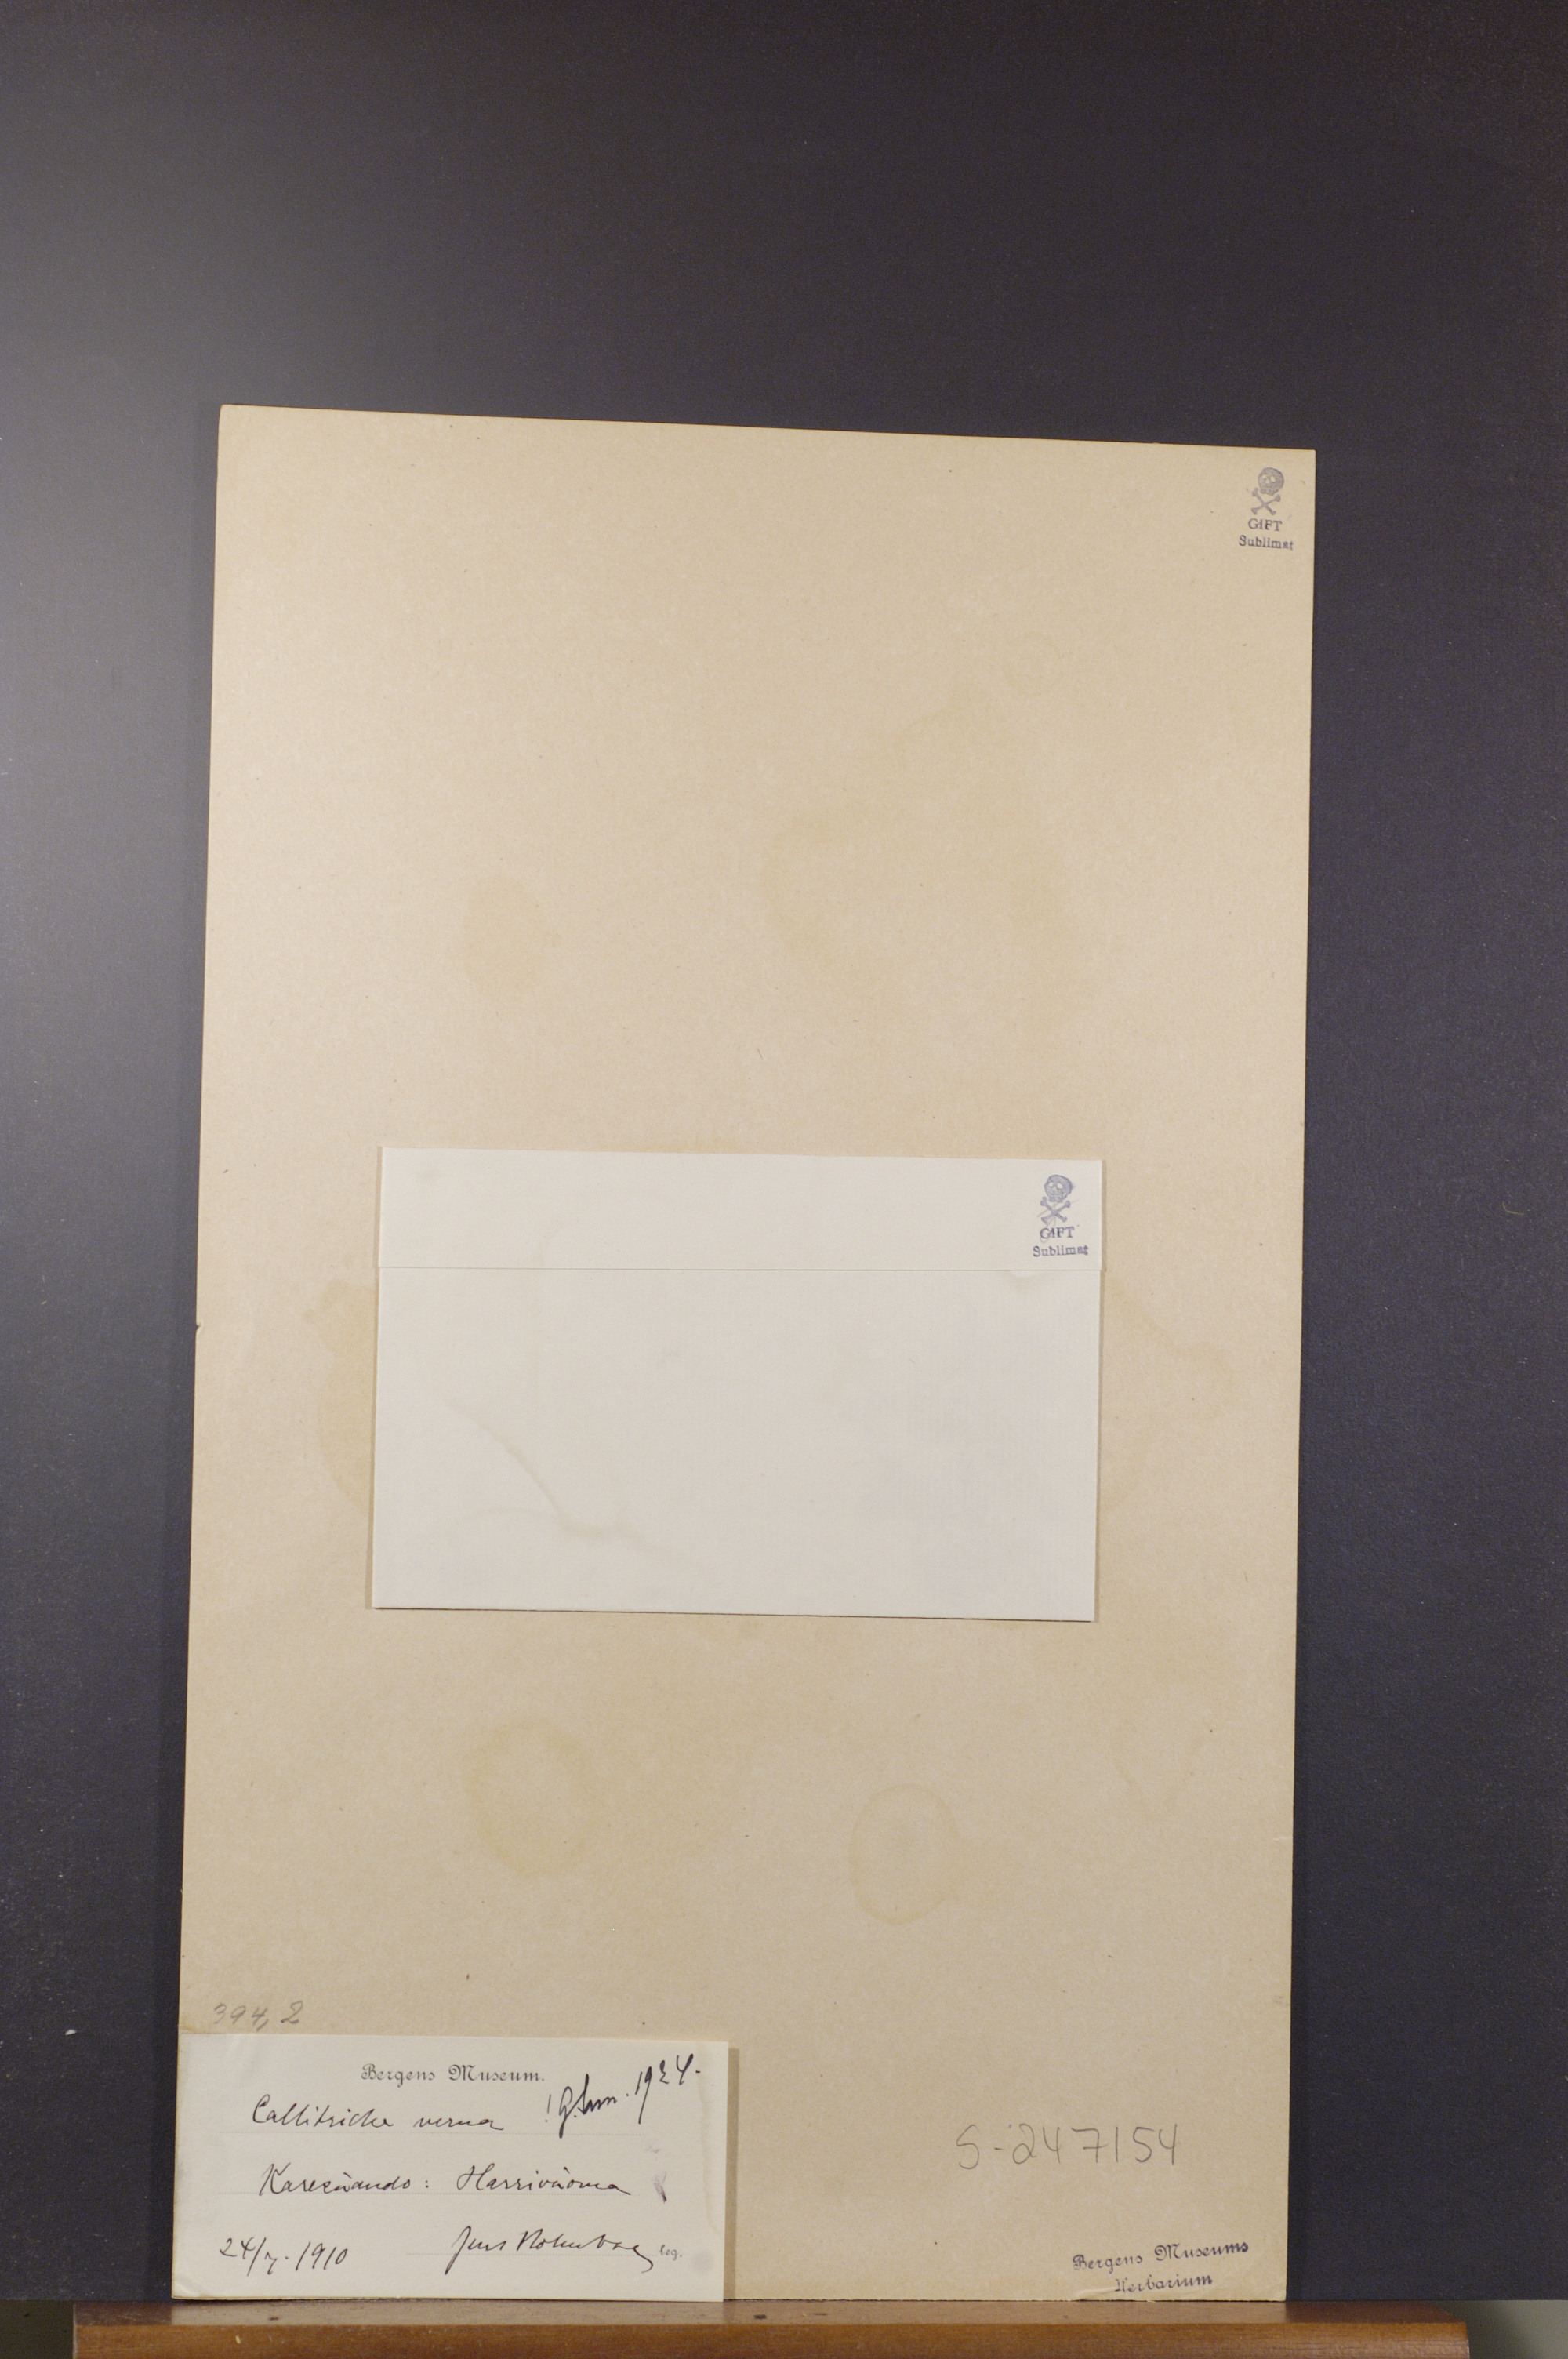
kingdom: Plantae
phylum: Tracheophyta
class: Magnoliopsida
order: Lamiales
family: Plantaginaceae
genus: Callitriche
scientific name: Callitriche palustris
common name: Spring water-starwort
